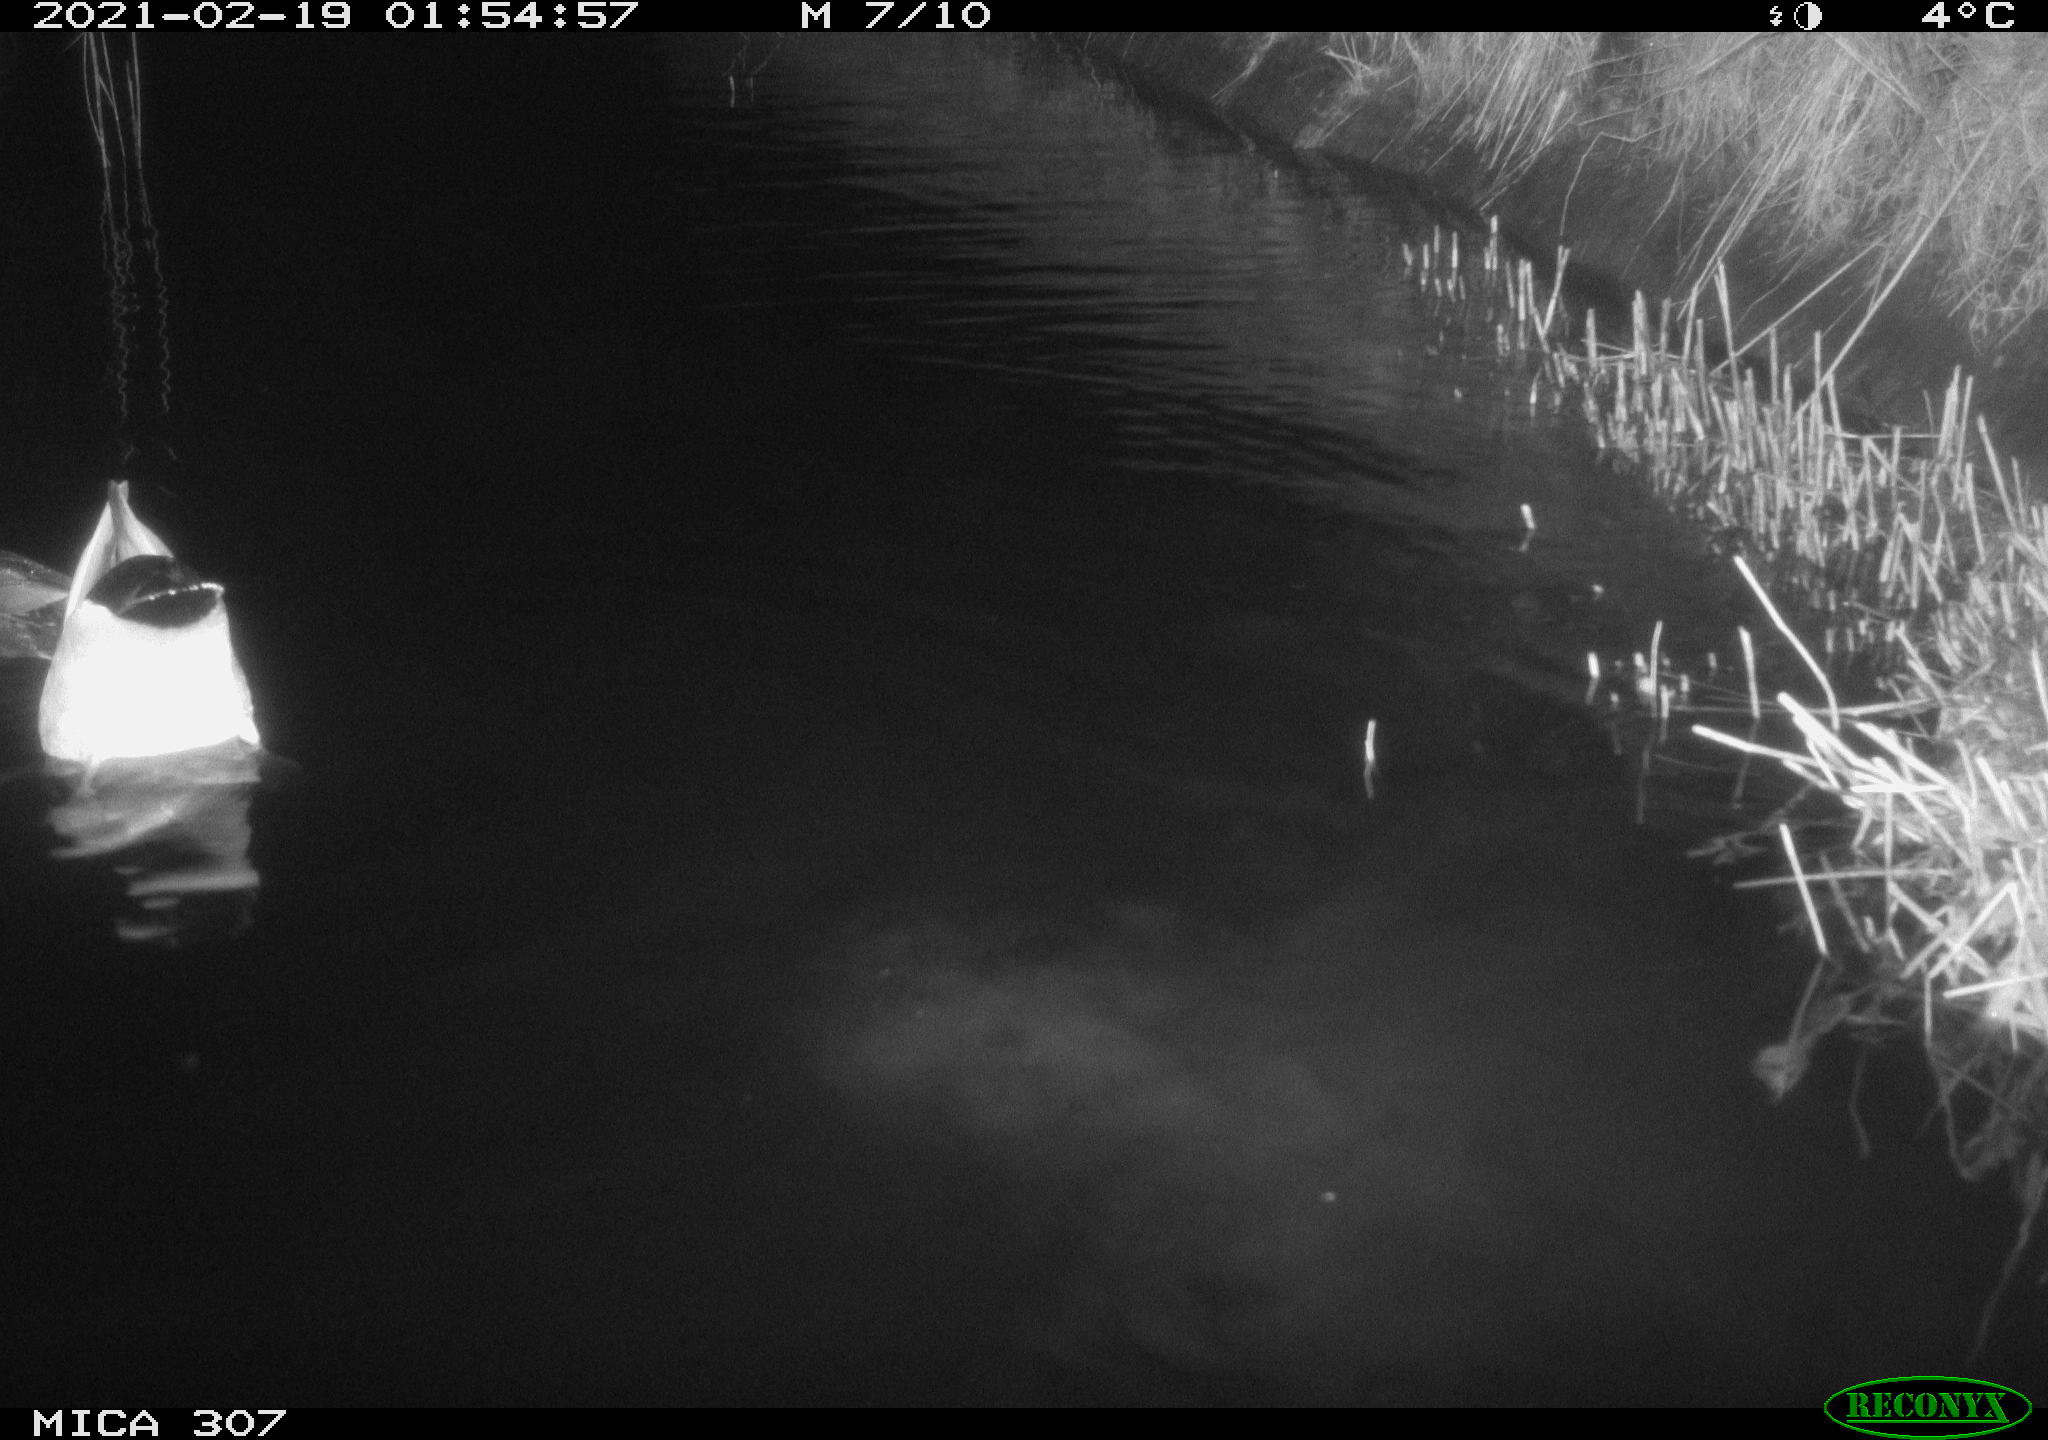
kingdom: Animalia
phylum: Chordata
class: Aves
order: Anseriformes
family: Anatidae
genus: Anas
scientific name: Anas platyrhynchos
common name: Mallard
